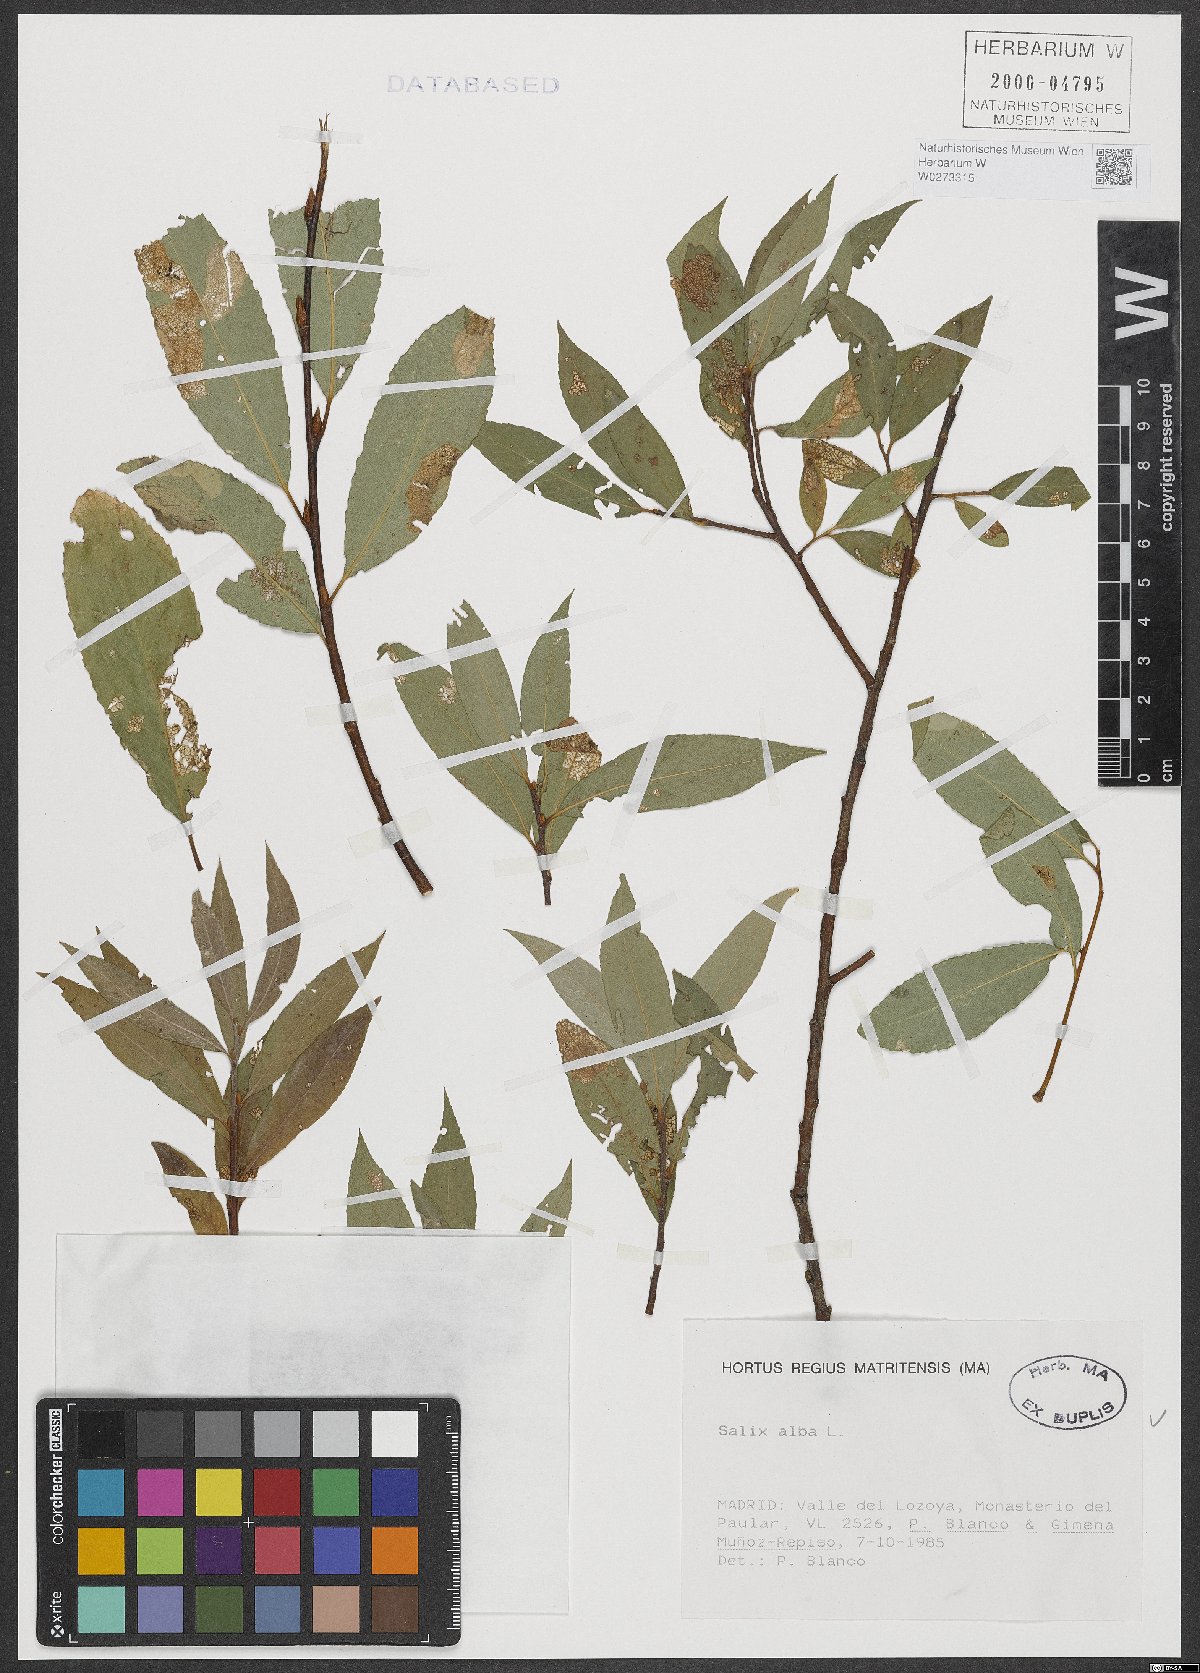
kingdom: Plantae
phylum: Tracheophyta
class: Magnoliopsida
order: Malpighiales
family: Salicaceae
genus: Salix
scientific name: Salix alba
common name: White willow
